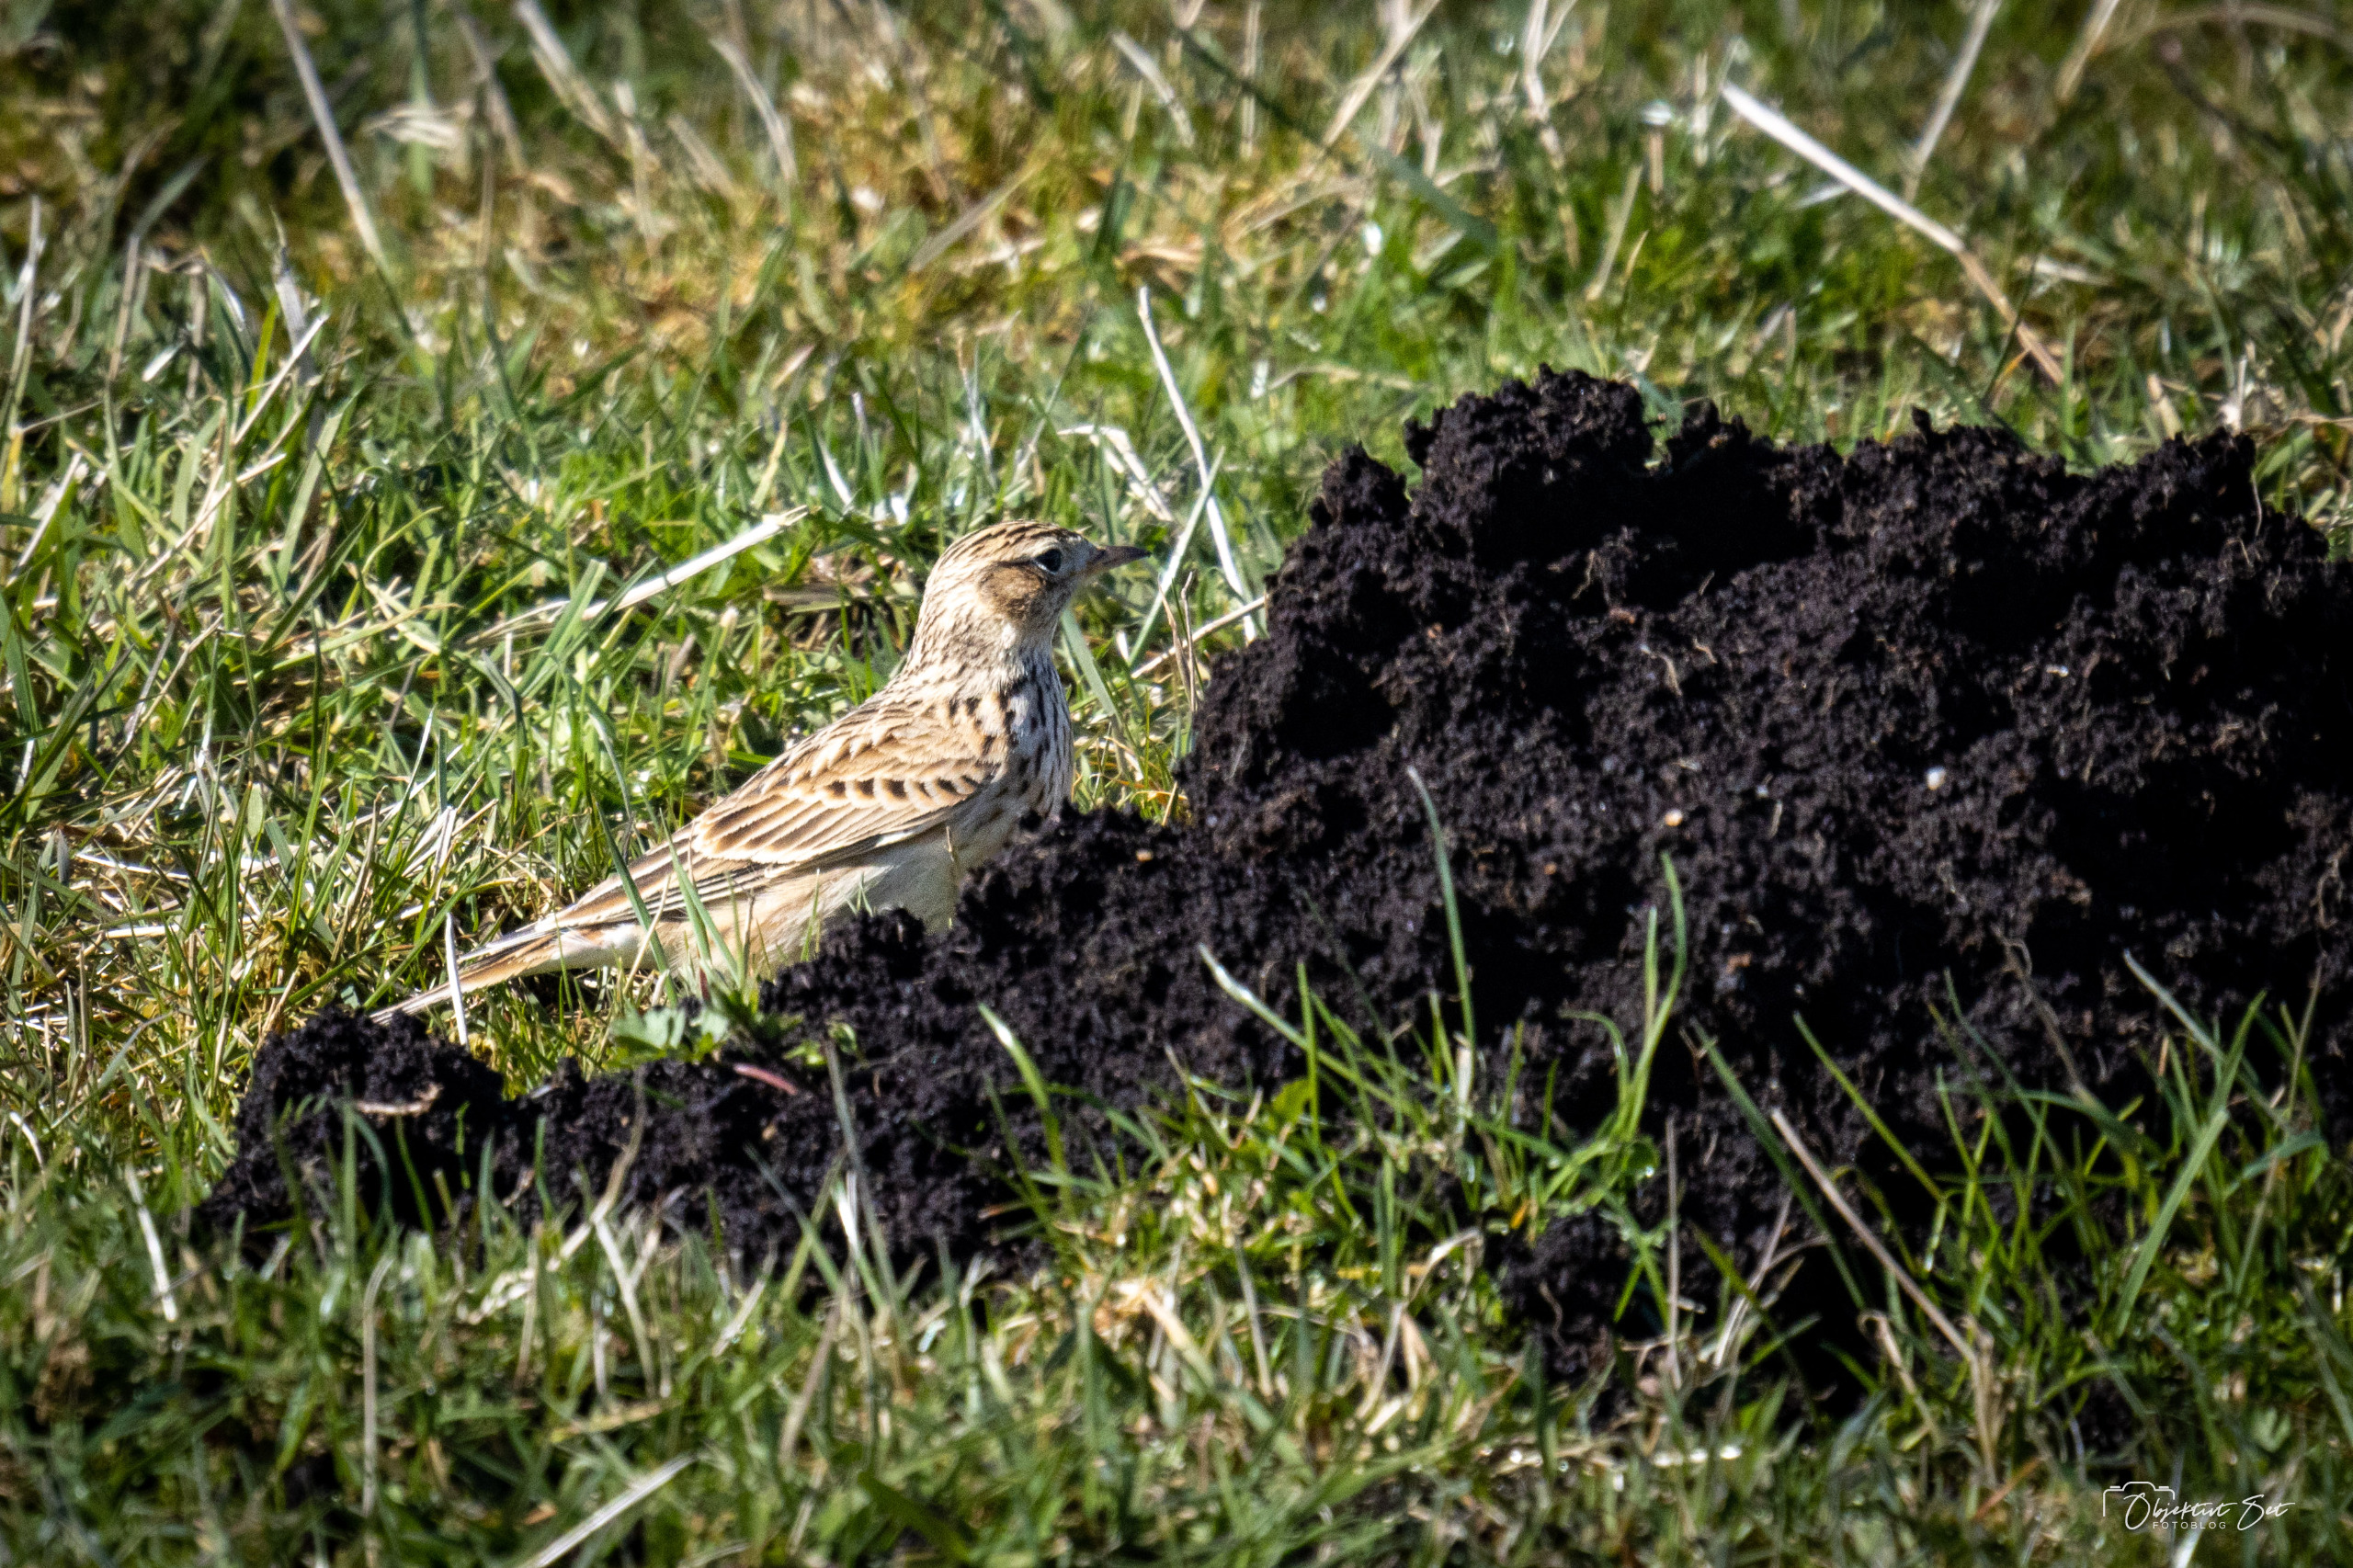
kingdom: Animalia
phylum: Chordata
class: Aves
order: Passeriformes
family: Alaudidae
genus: Alauda
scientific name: Alauda arvensis
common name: Sanglærke
